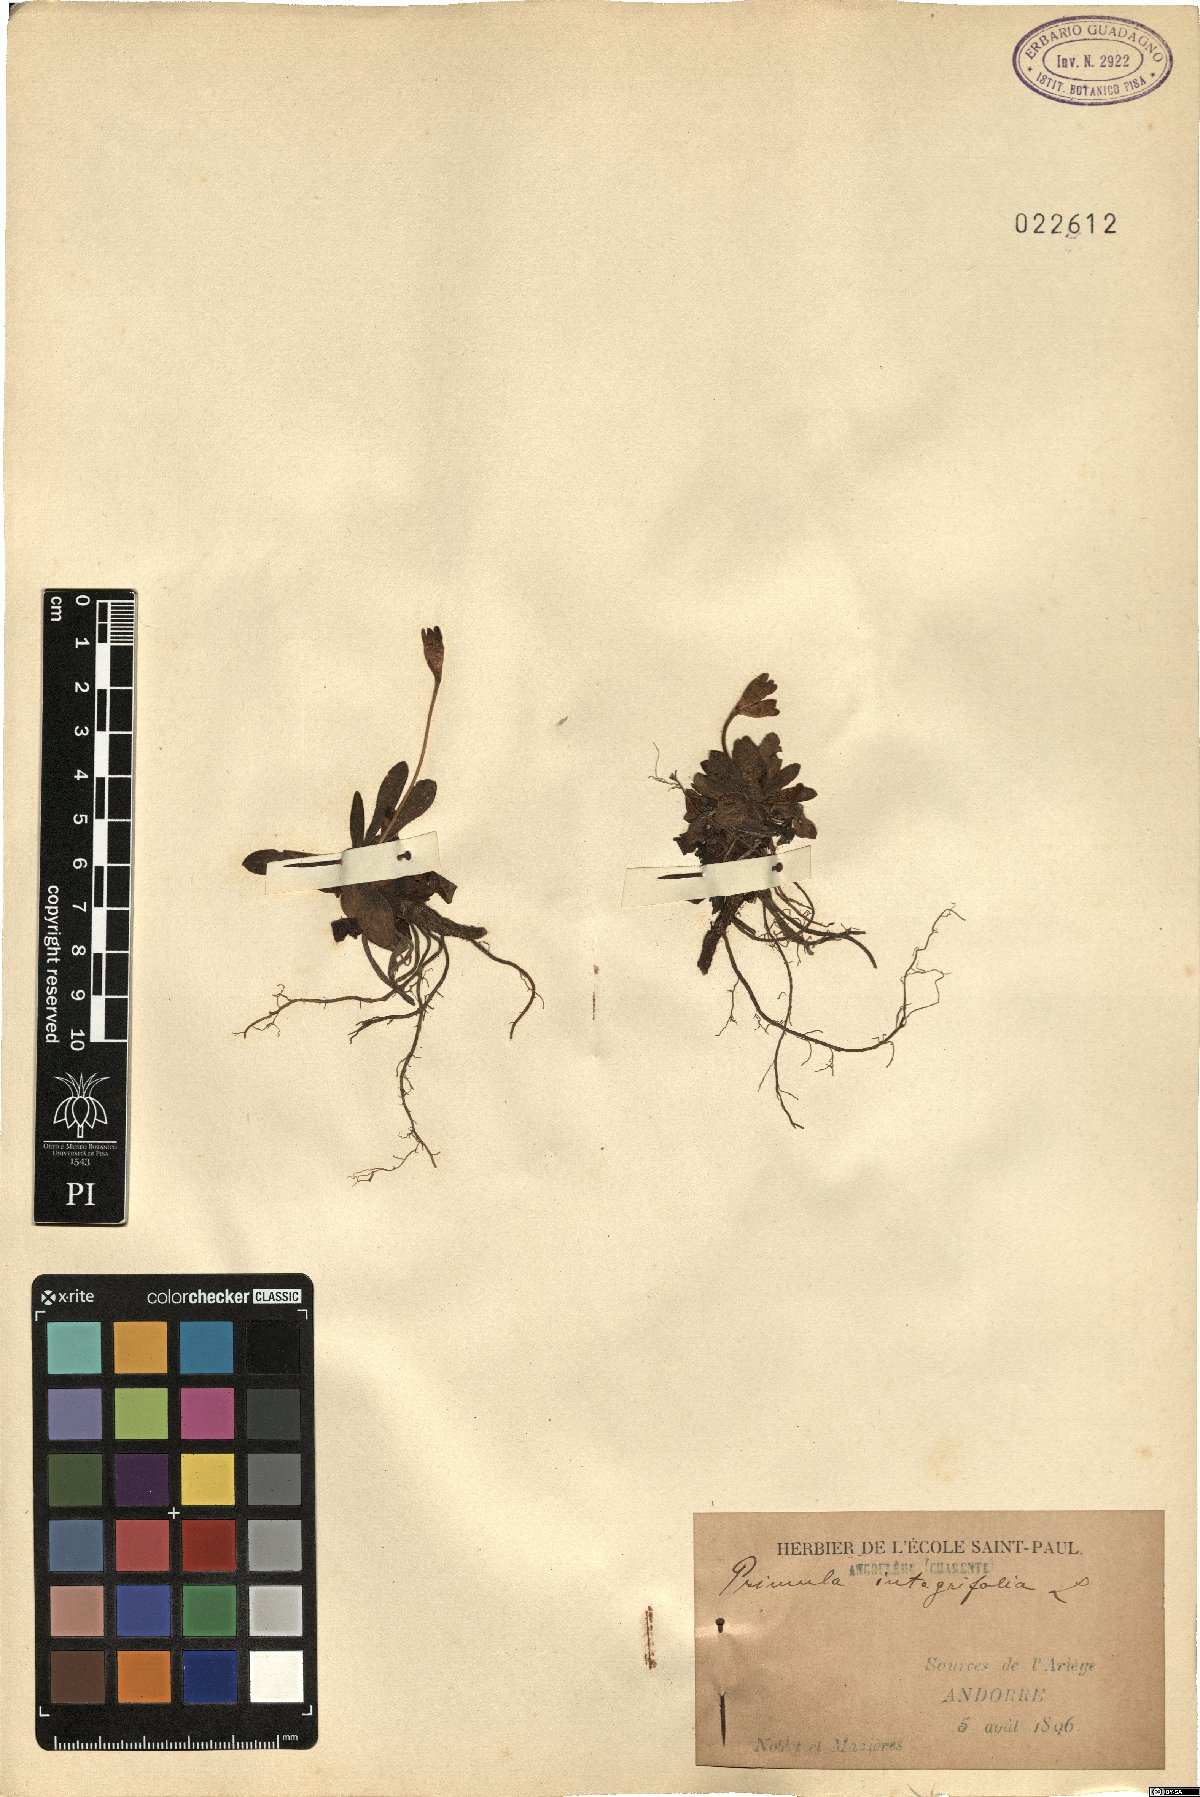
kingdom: Plantae
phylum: Tracheophyta
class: Magnoliopsida
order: Ericales
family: Primulaceae
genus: Primula
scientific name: Primula integrifolia
